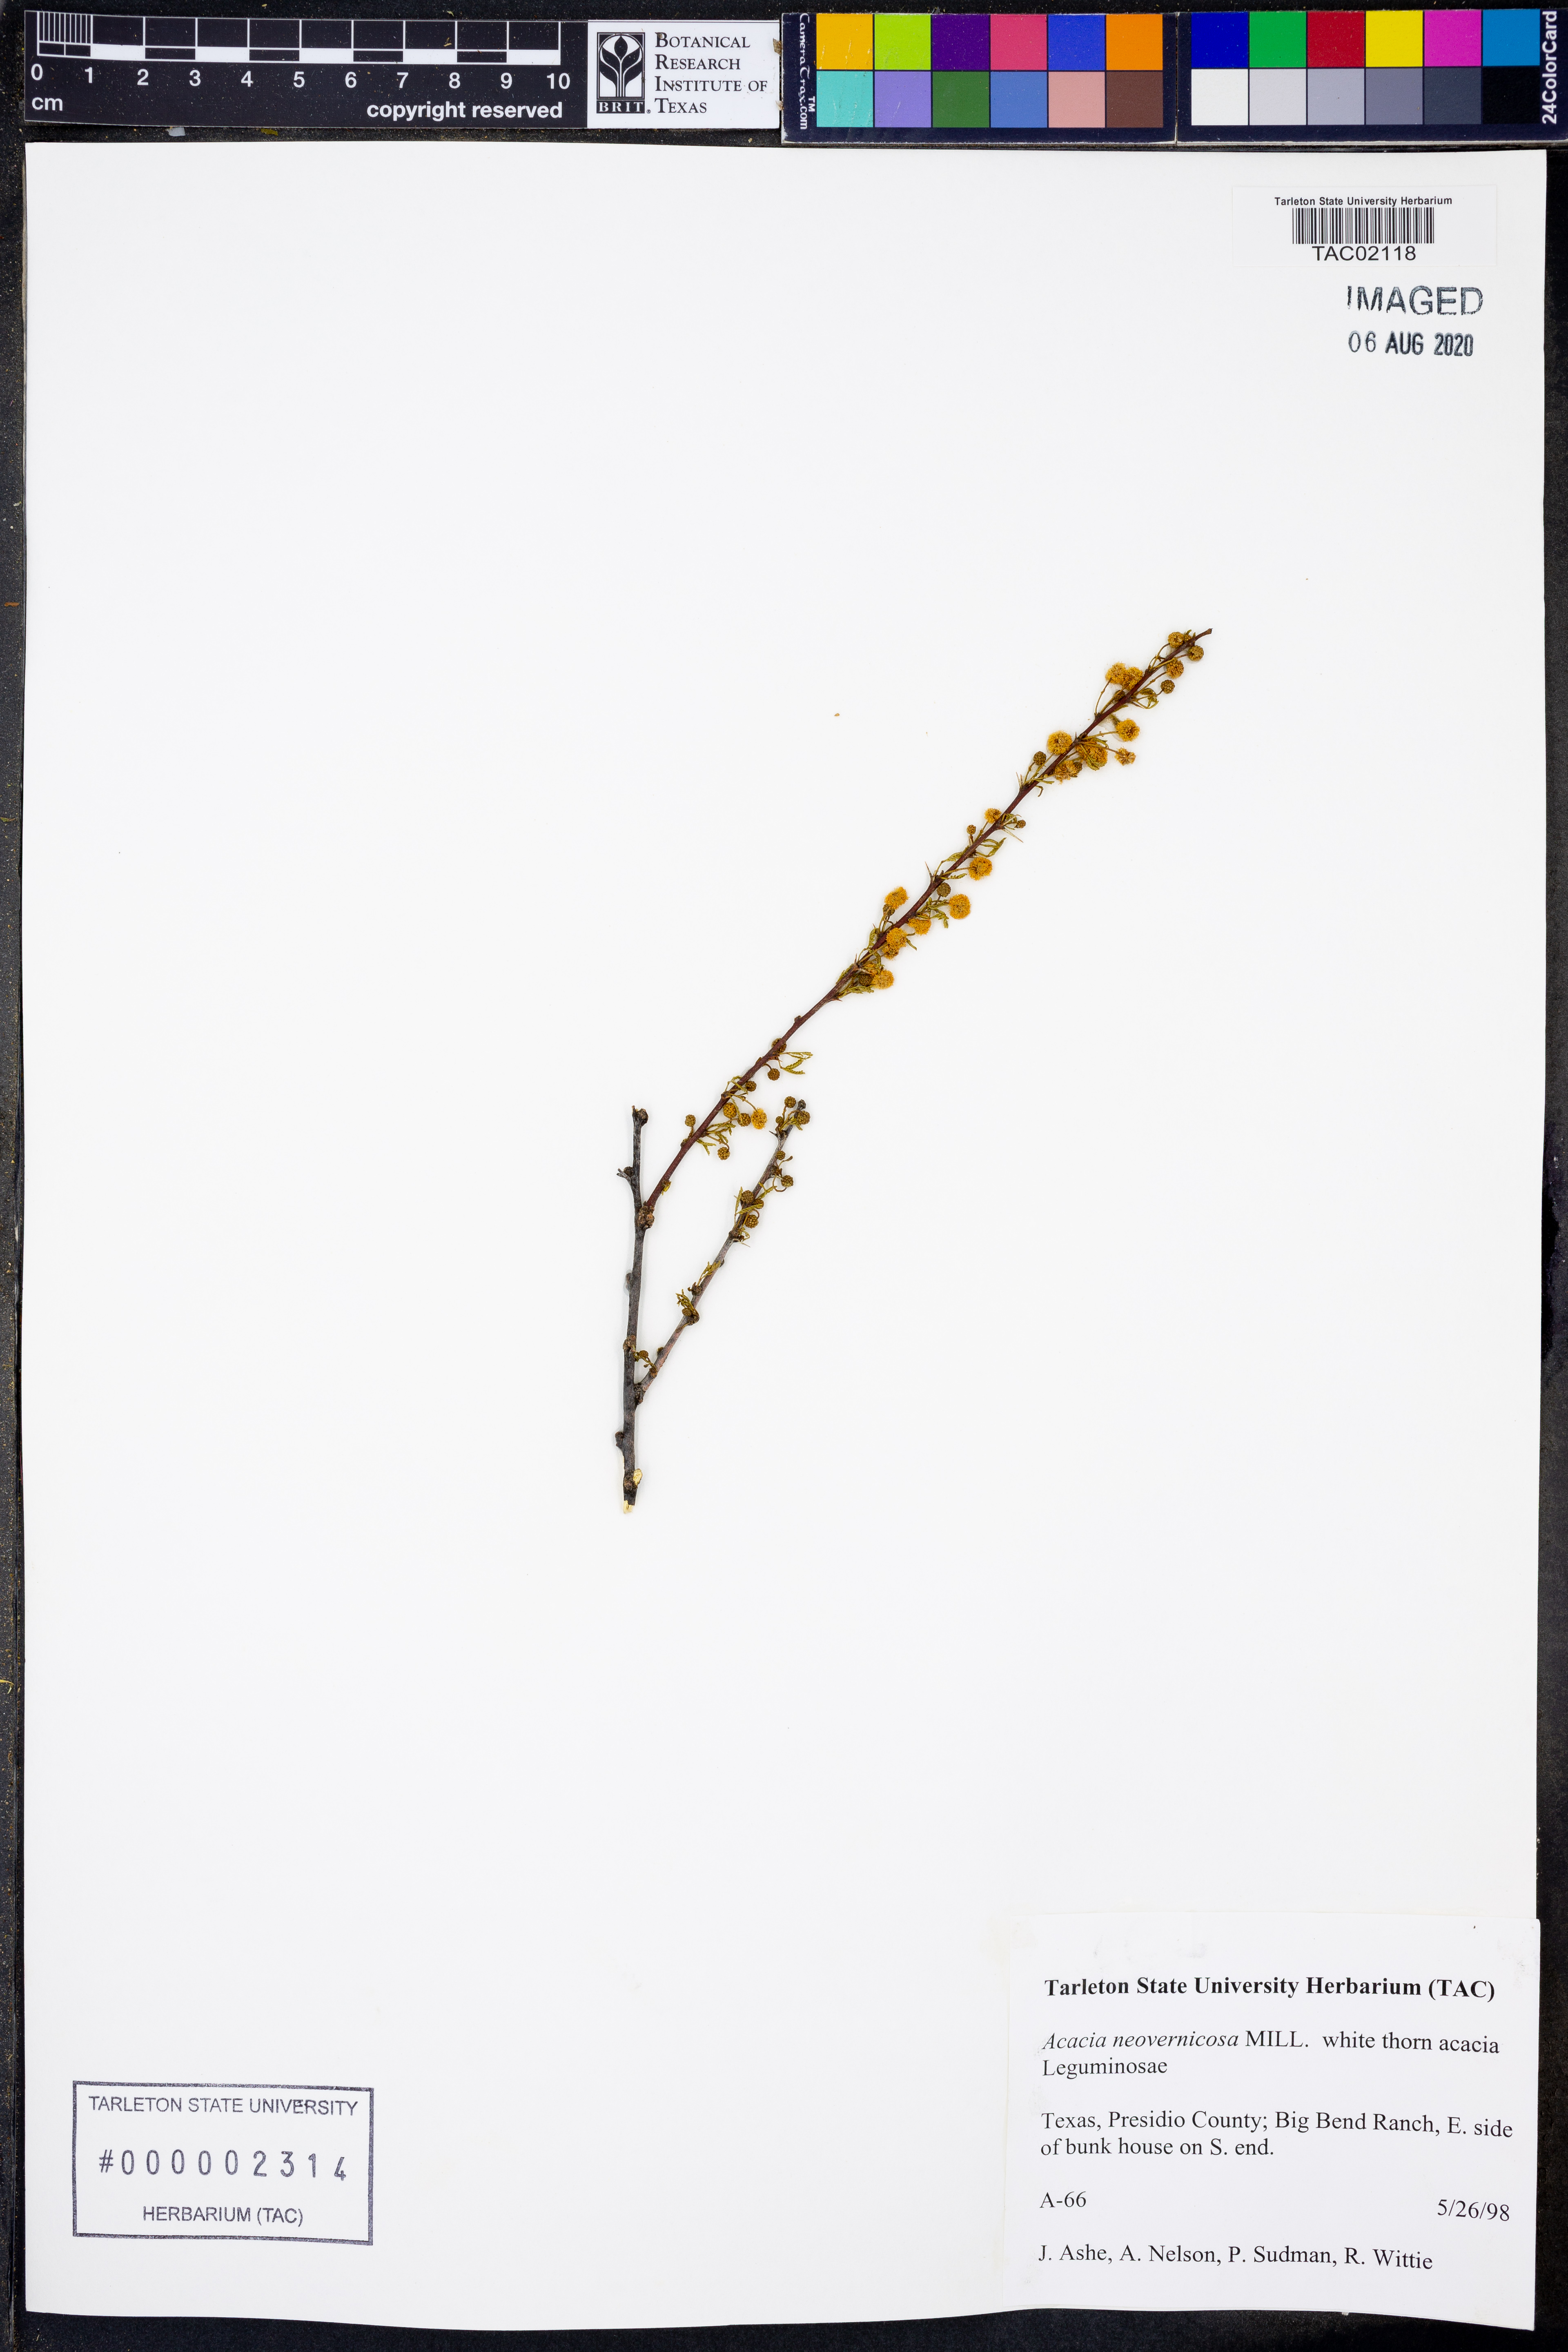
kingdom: Plantae
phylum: Tracheophyta
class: Magnoliopsida
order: Fabales
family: Fabaceae
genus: Vachellia
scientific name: Vachellia vernicosa
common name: Viscid acacia
